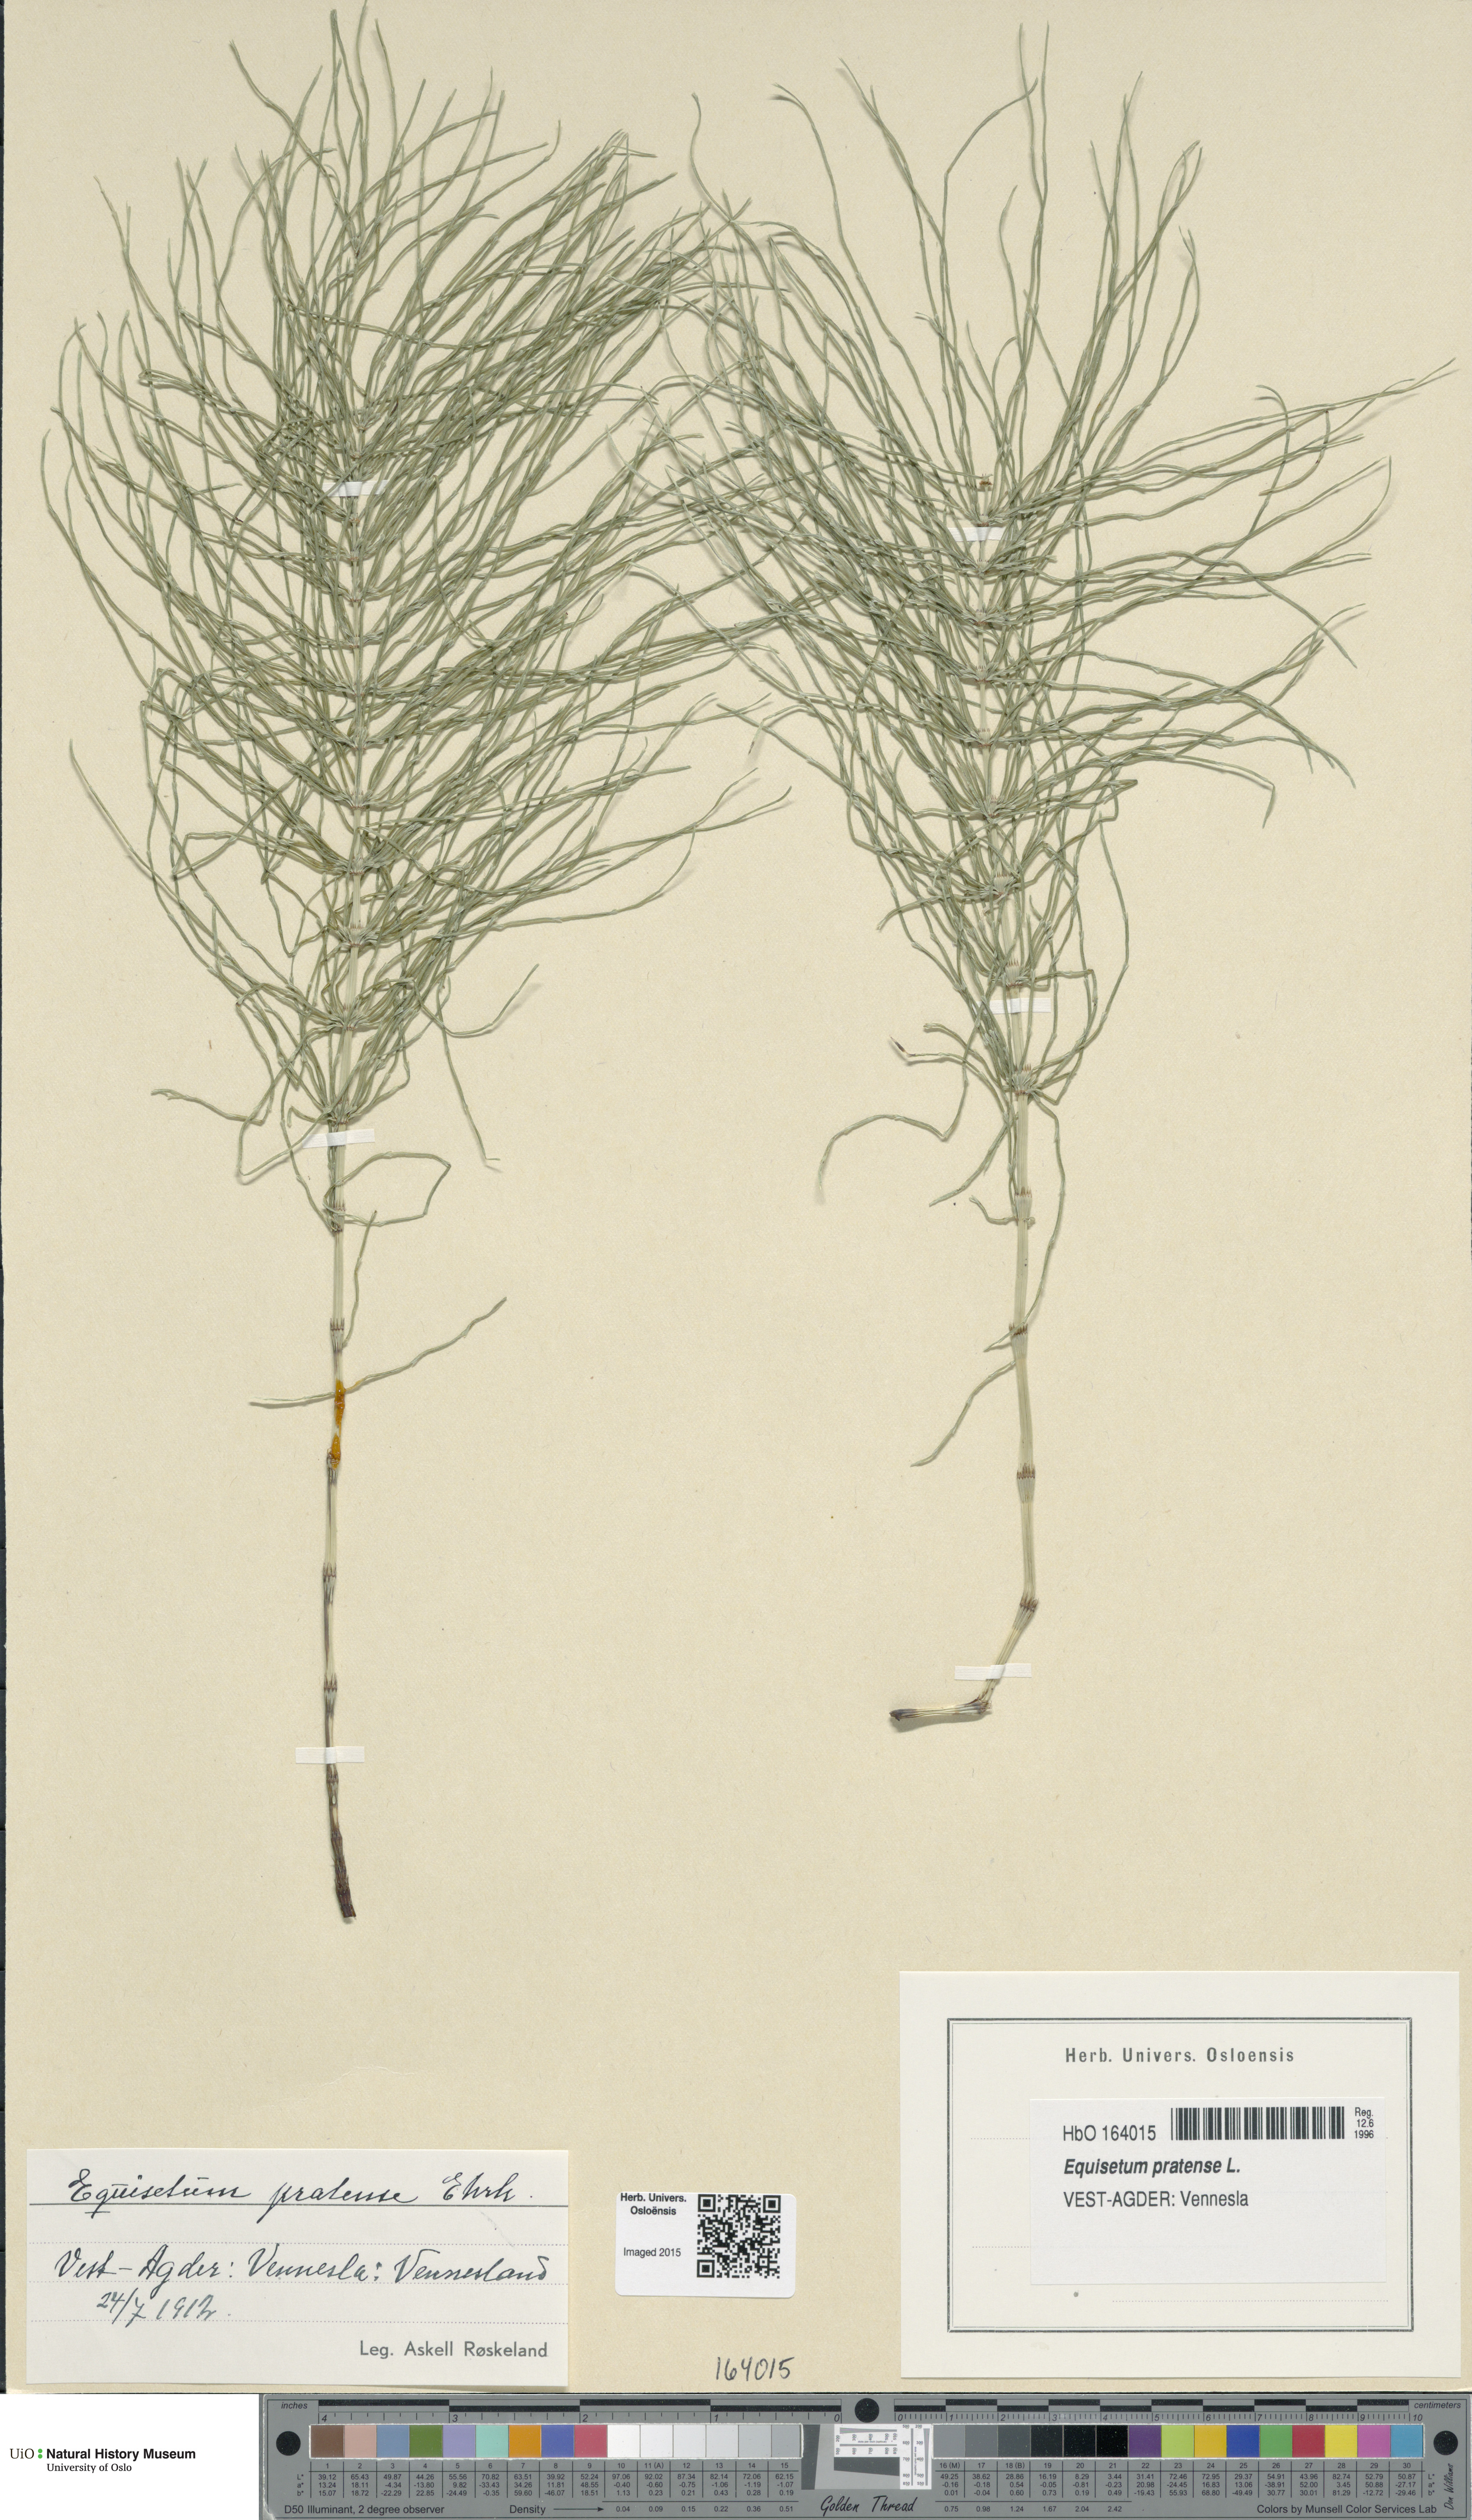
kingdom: Plantae
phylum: Tracheophyta
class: Polypodiopsida
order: Equisetales
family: Equisetaceae
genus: Equisetum
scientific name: Equisetum pratense
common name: Meadow horsetail
